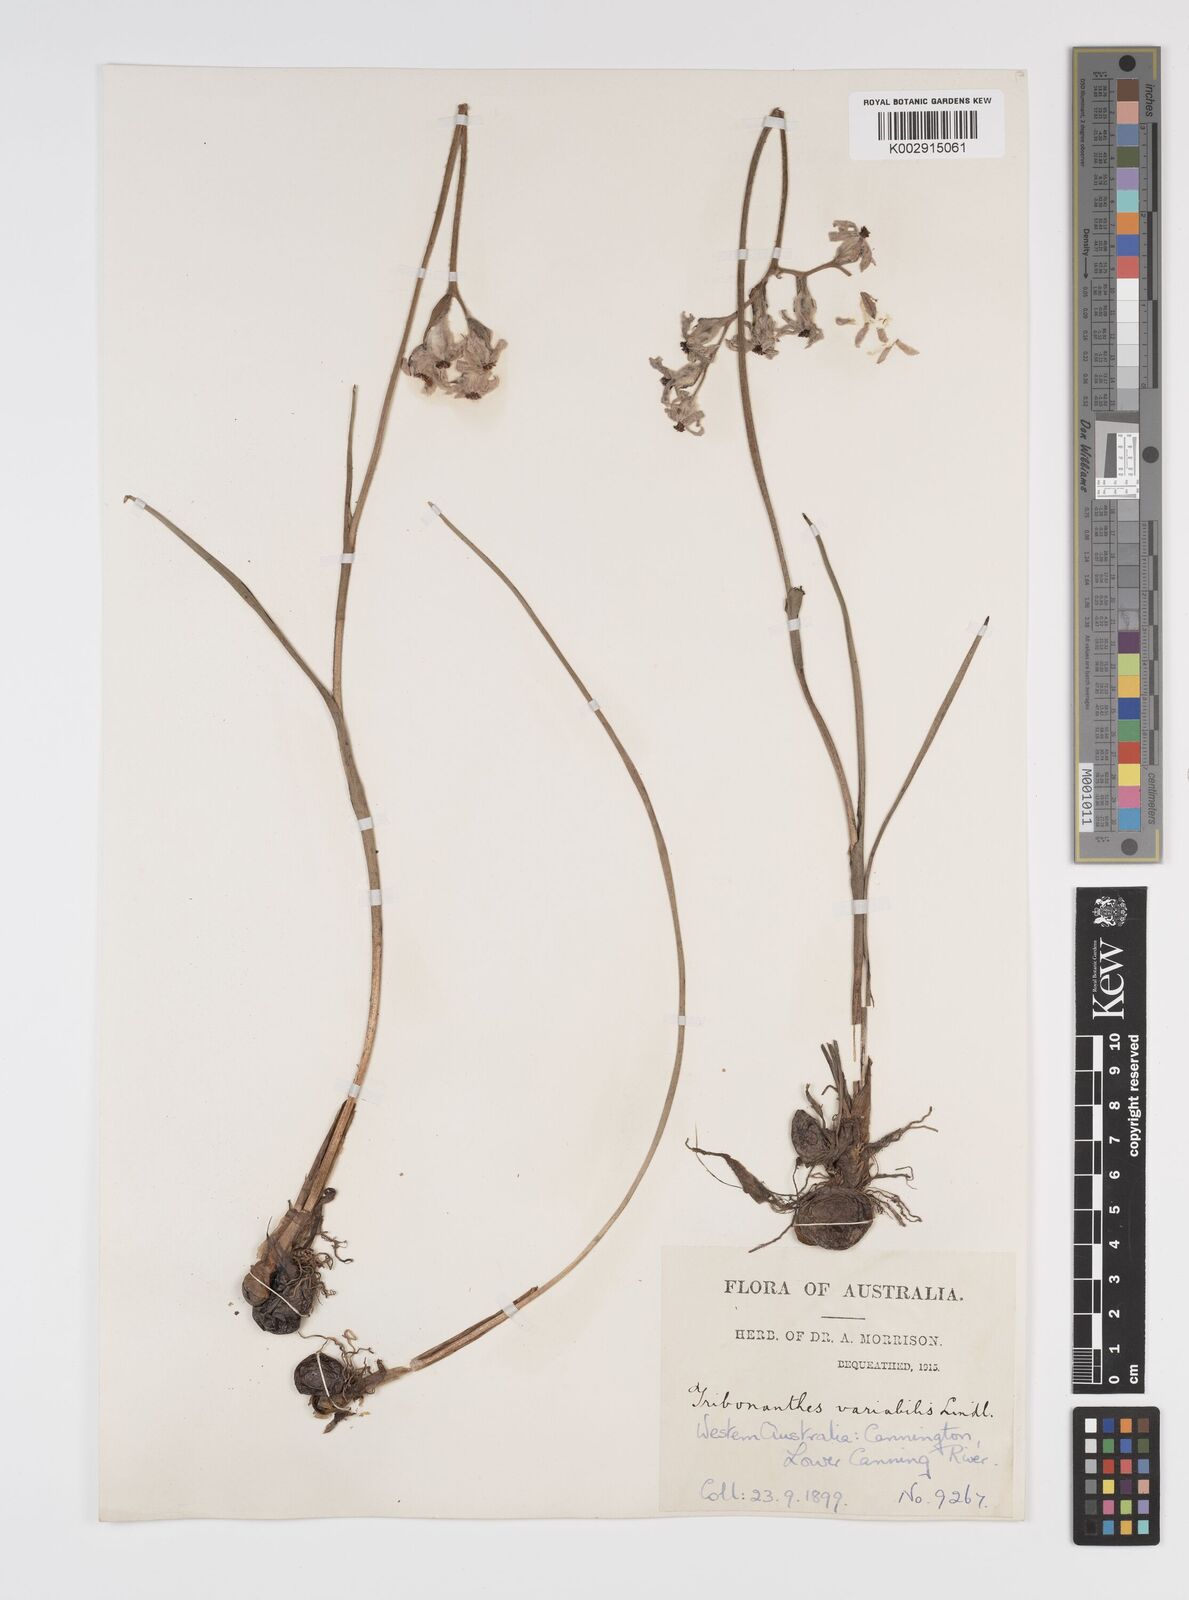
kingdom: Plantae
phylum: Tracheophyta
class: Liliopsida
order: Commelinales
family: Haemodoraceae
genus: Tribonanthes
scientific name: Tribonanthes australis
